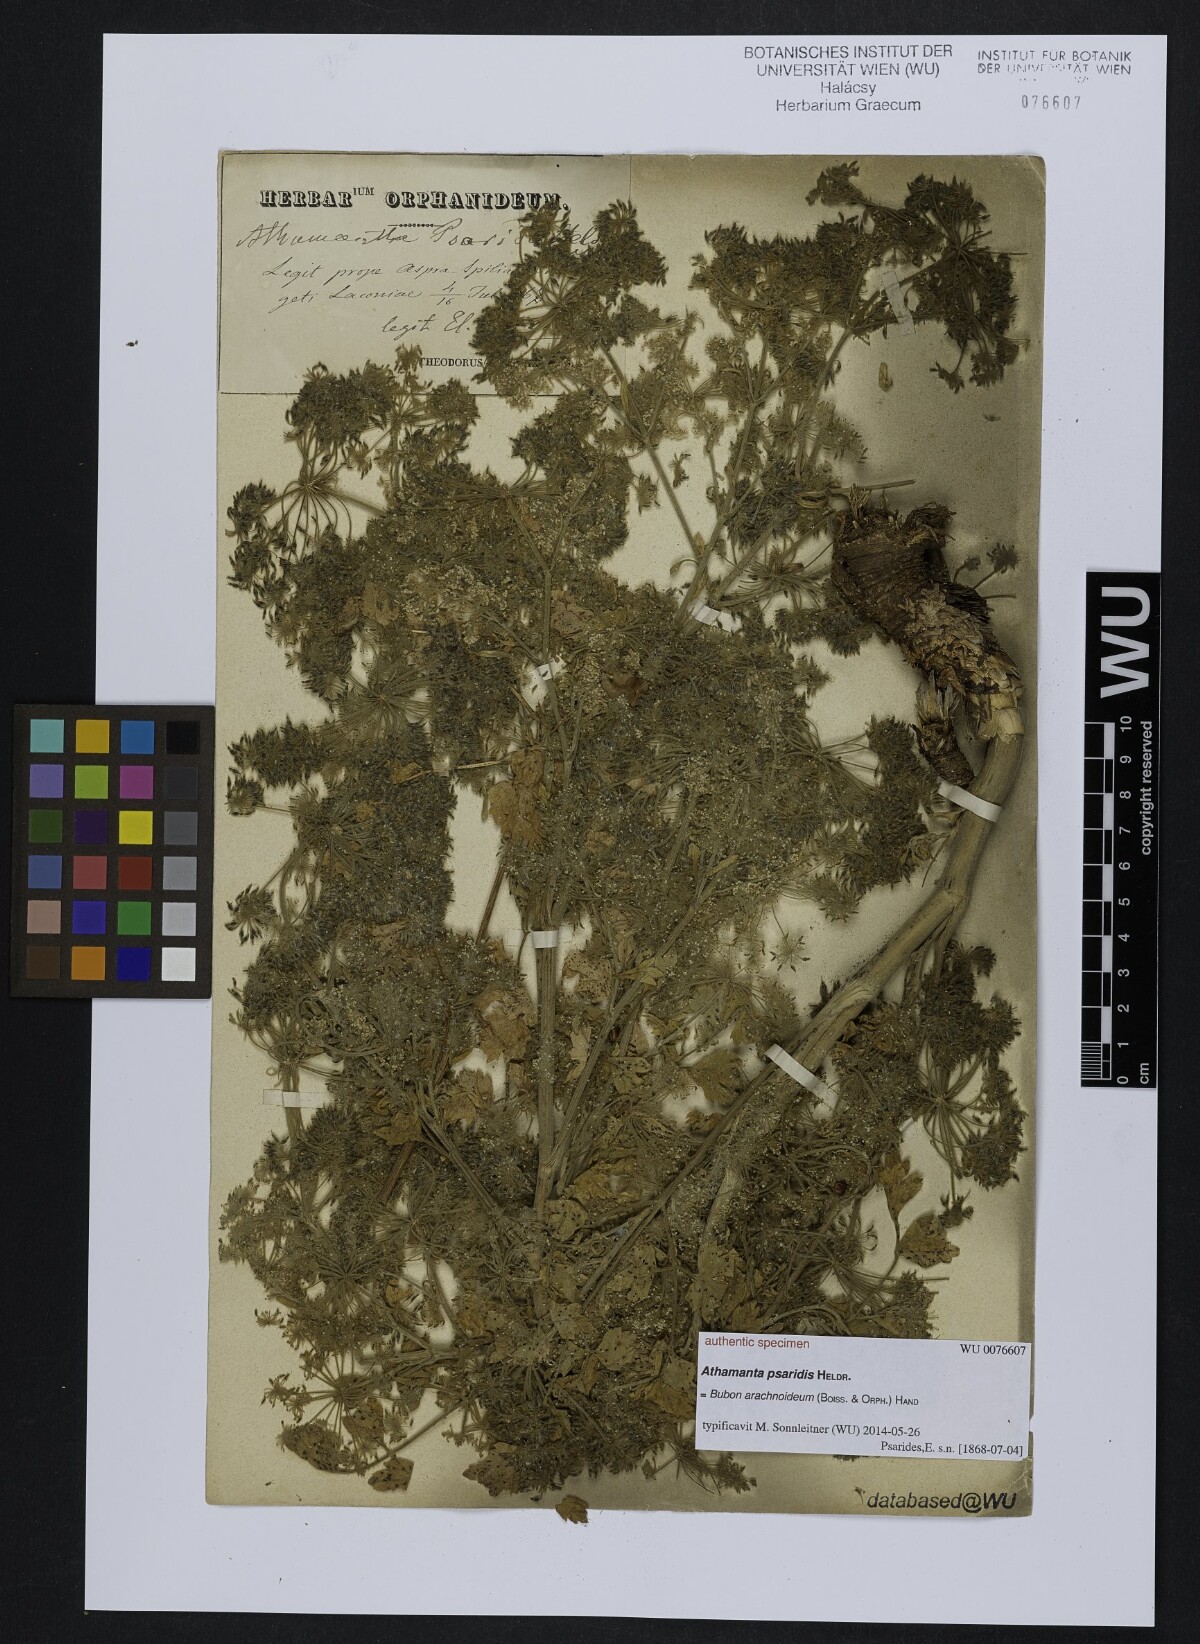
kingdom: Plantae
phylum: Tracheophyta
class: Magnoliopsida
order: Apiales
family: Apiaceae
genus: Athamanta
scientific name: Athamanta
